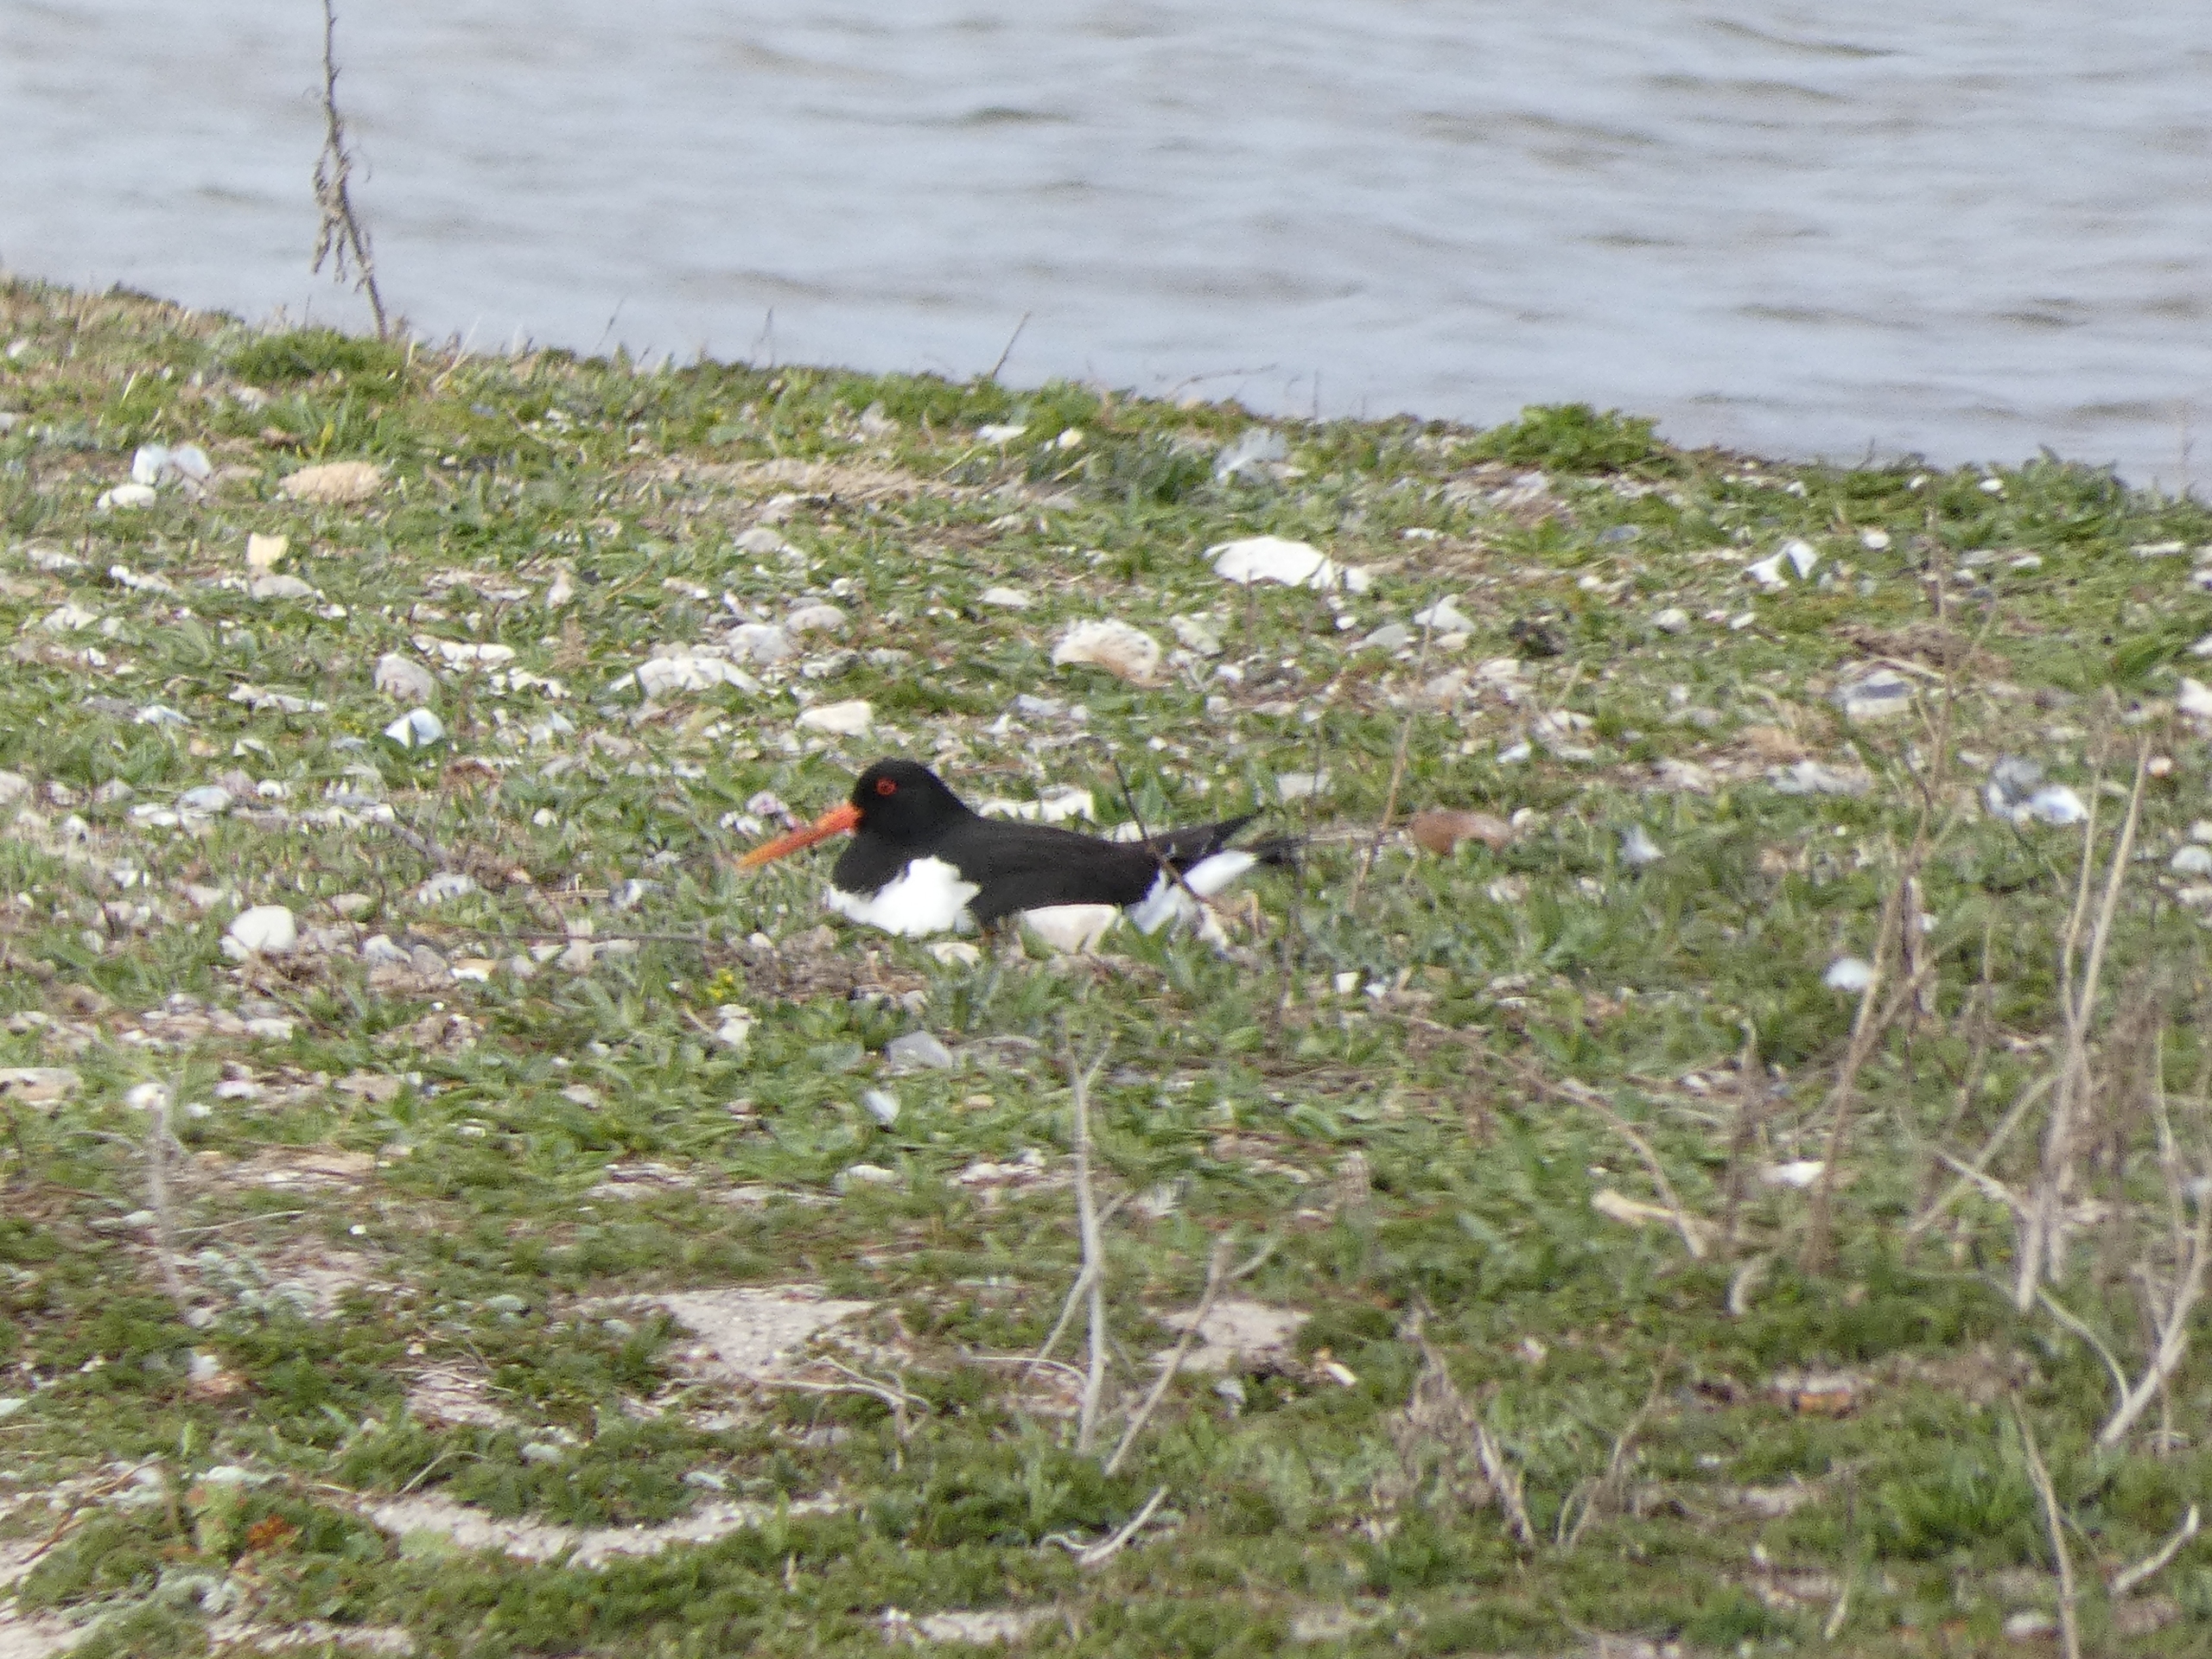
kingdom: Animalia
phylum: Chordata
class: Aves
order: Charadriiformes
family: Haematopodidae
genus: Haematopus
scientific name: Haematopus ostralegus
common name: Strandskade
